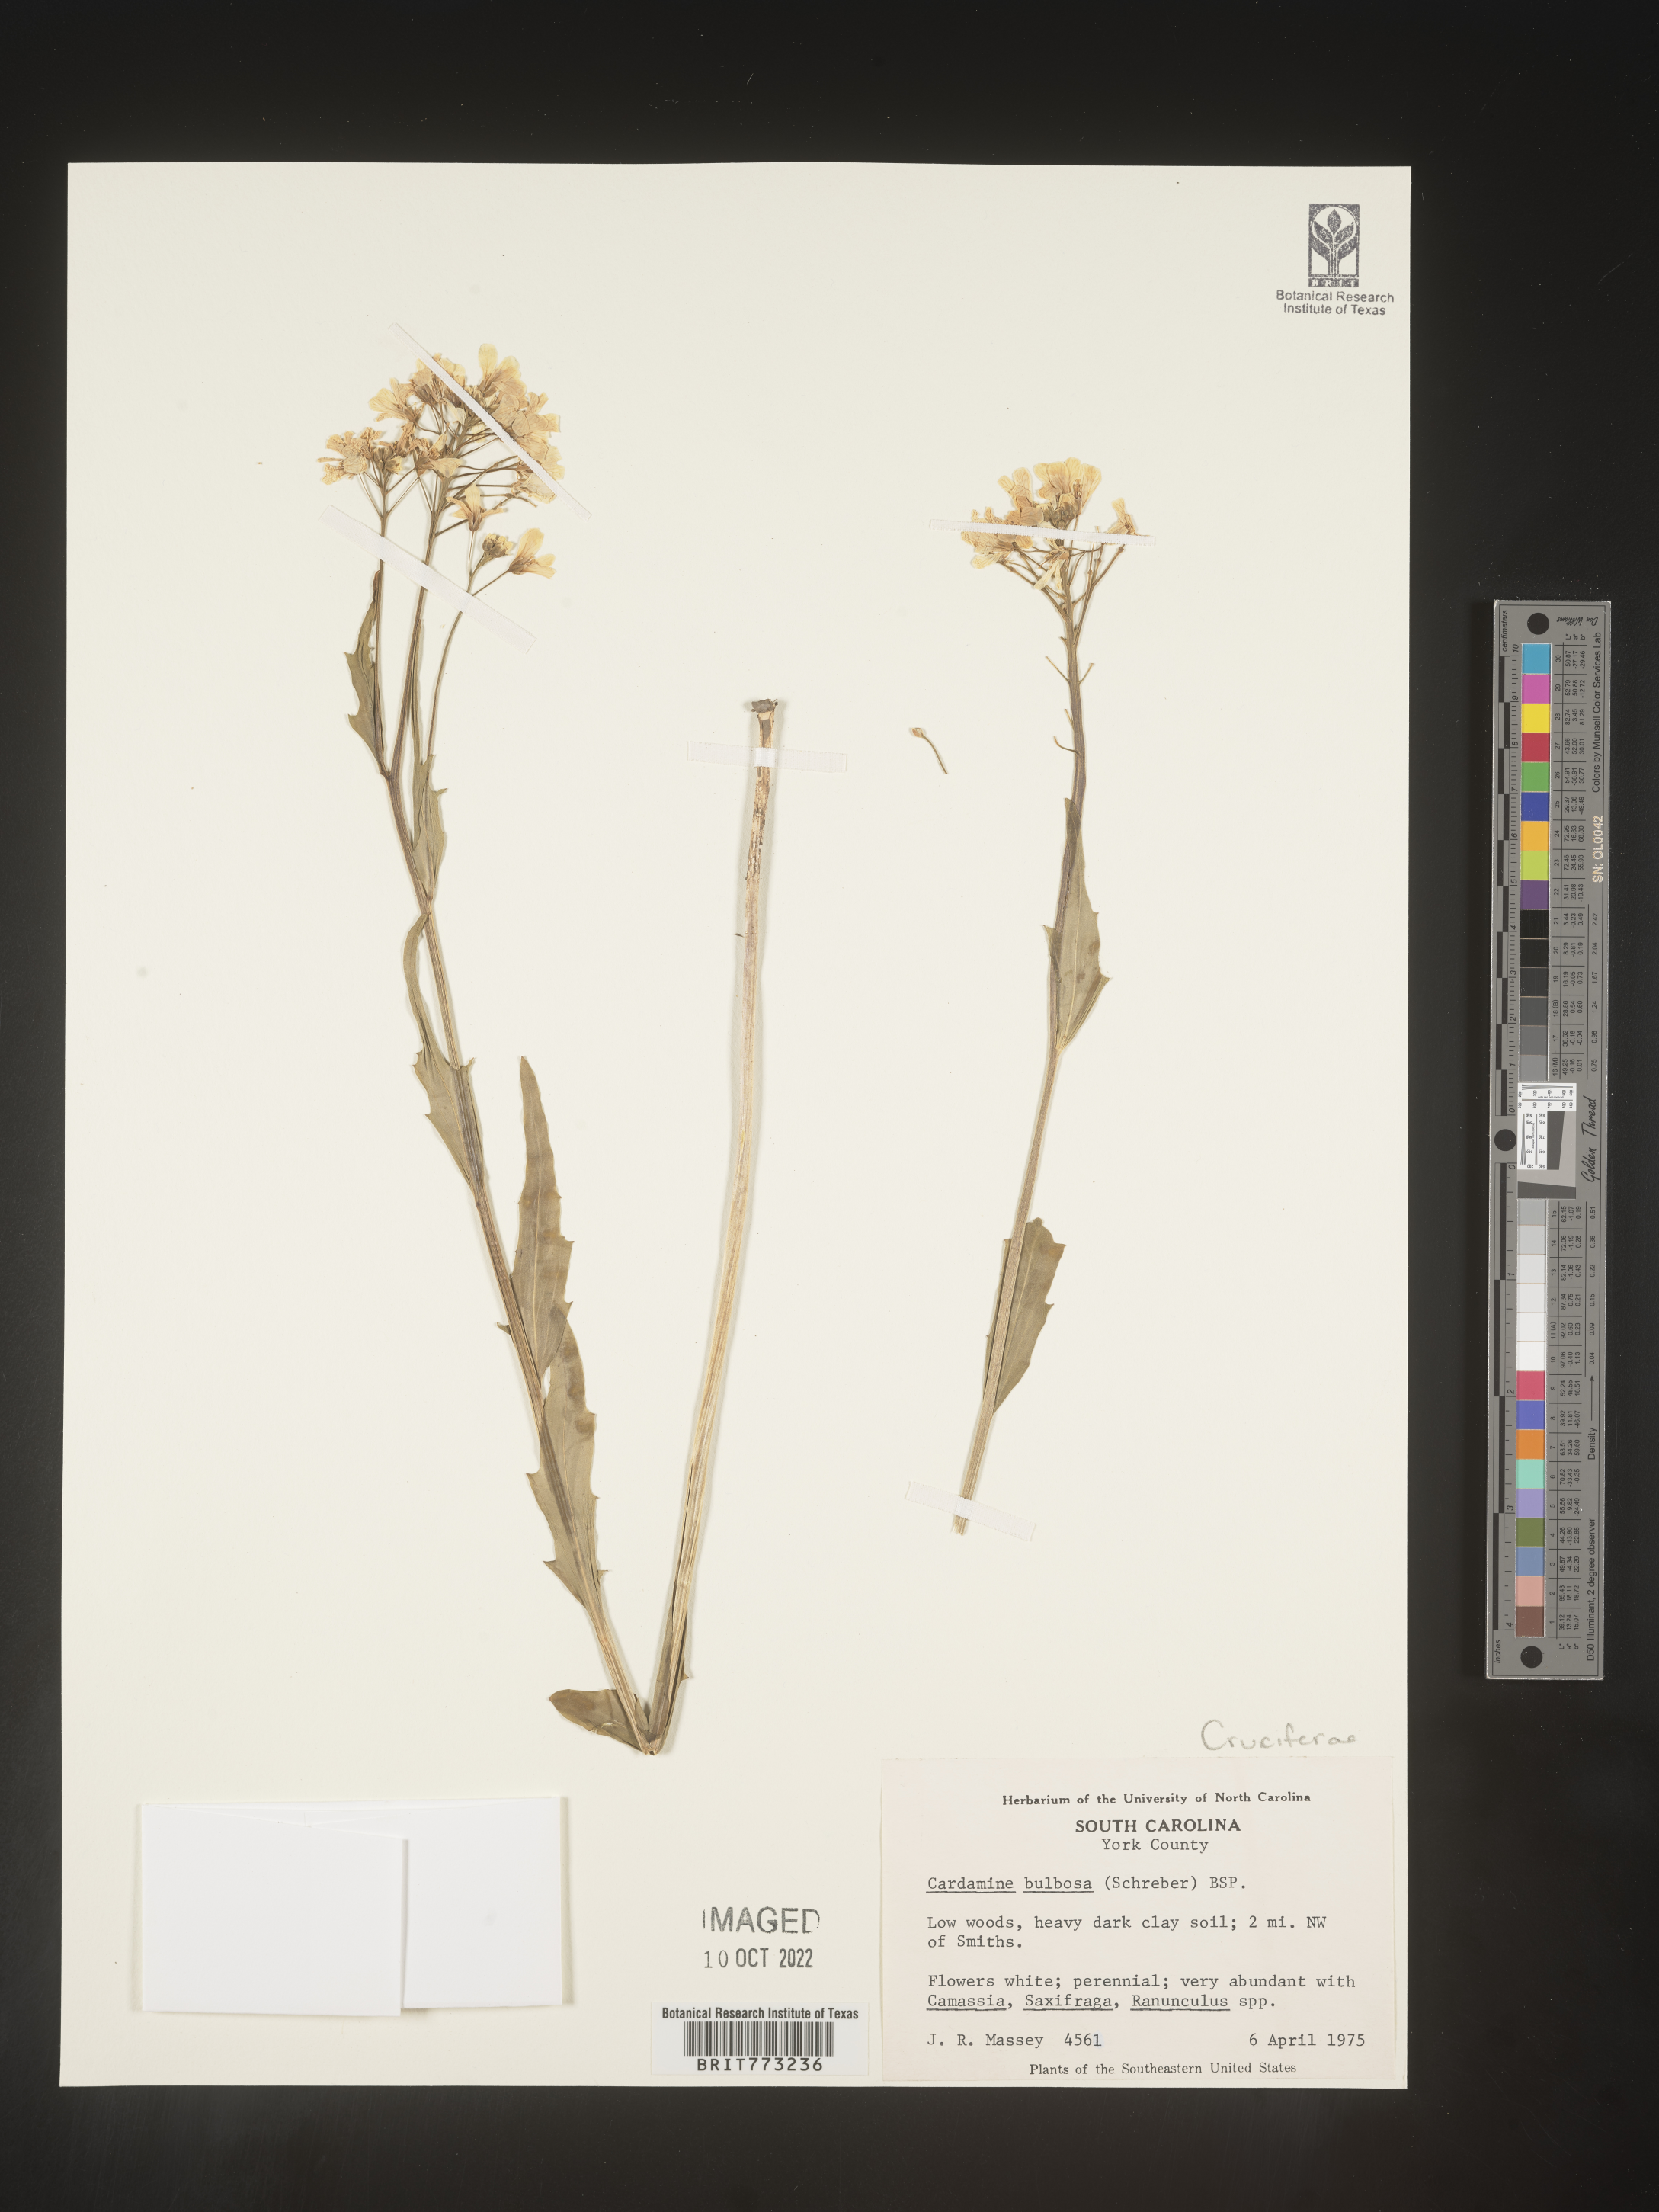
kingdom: Plantae
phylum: Tracheophyta
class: Magnoliopsida
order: Brassicales
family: Brassicaceae
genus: Cardamine
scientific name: Cardamine bulbosa
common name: Spring cress
